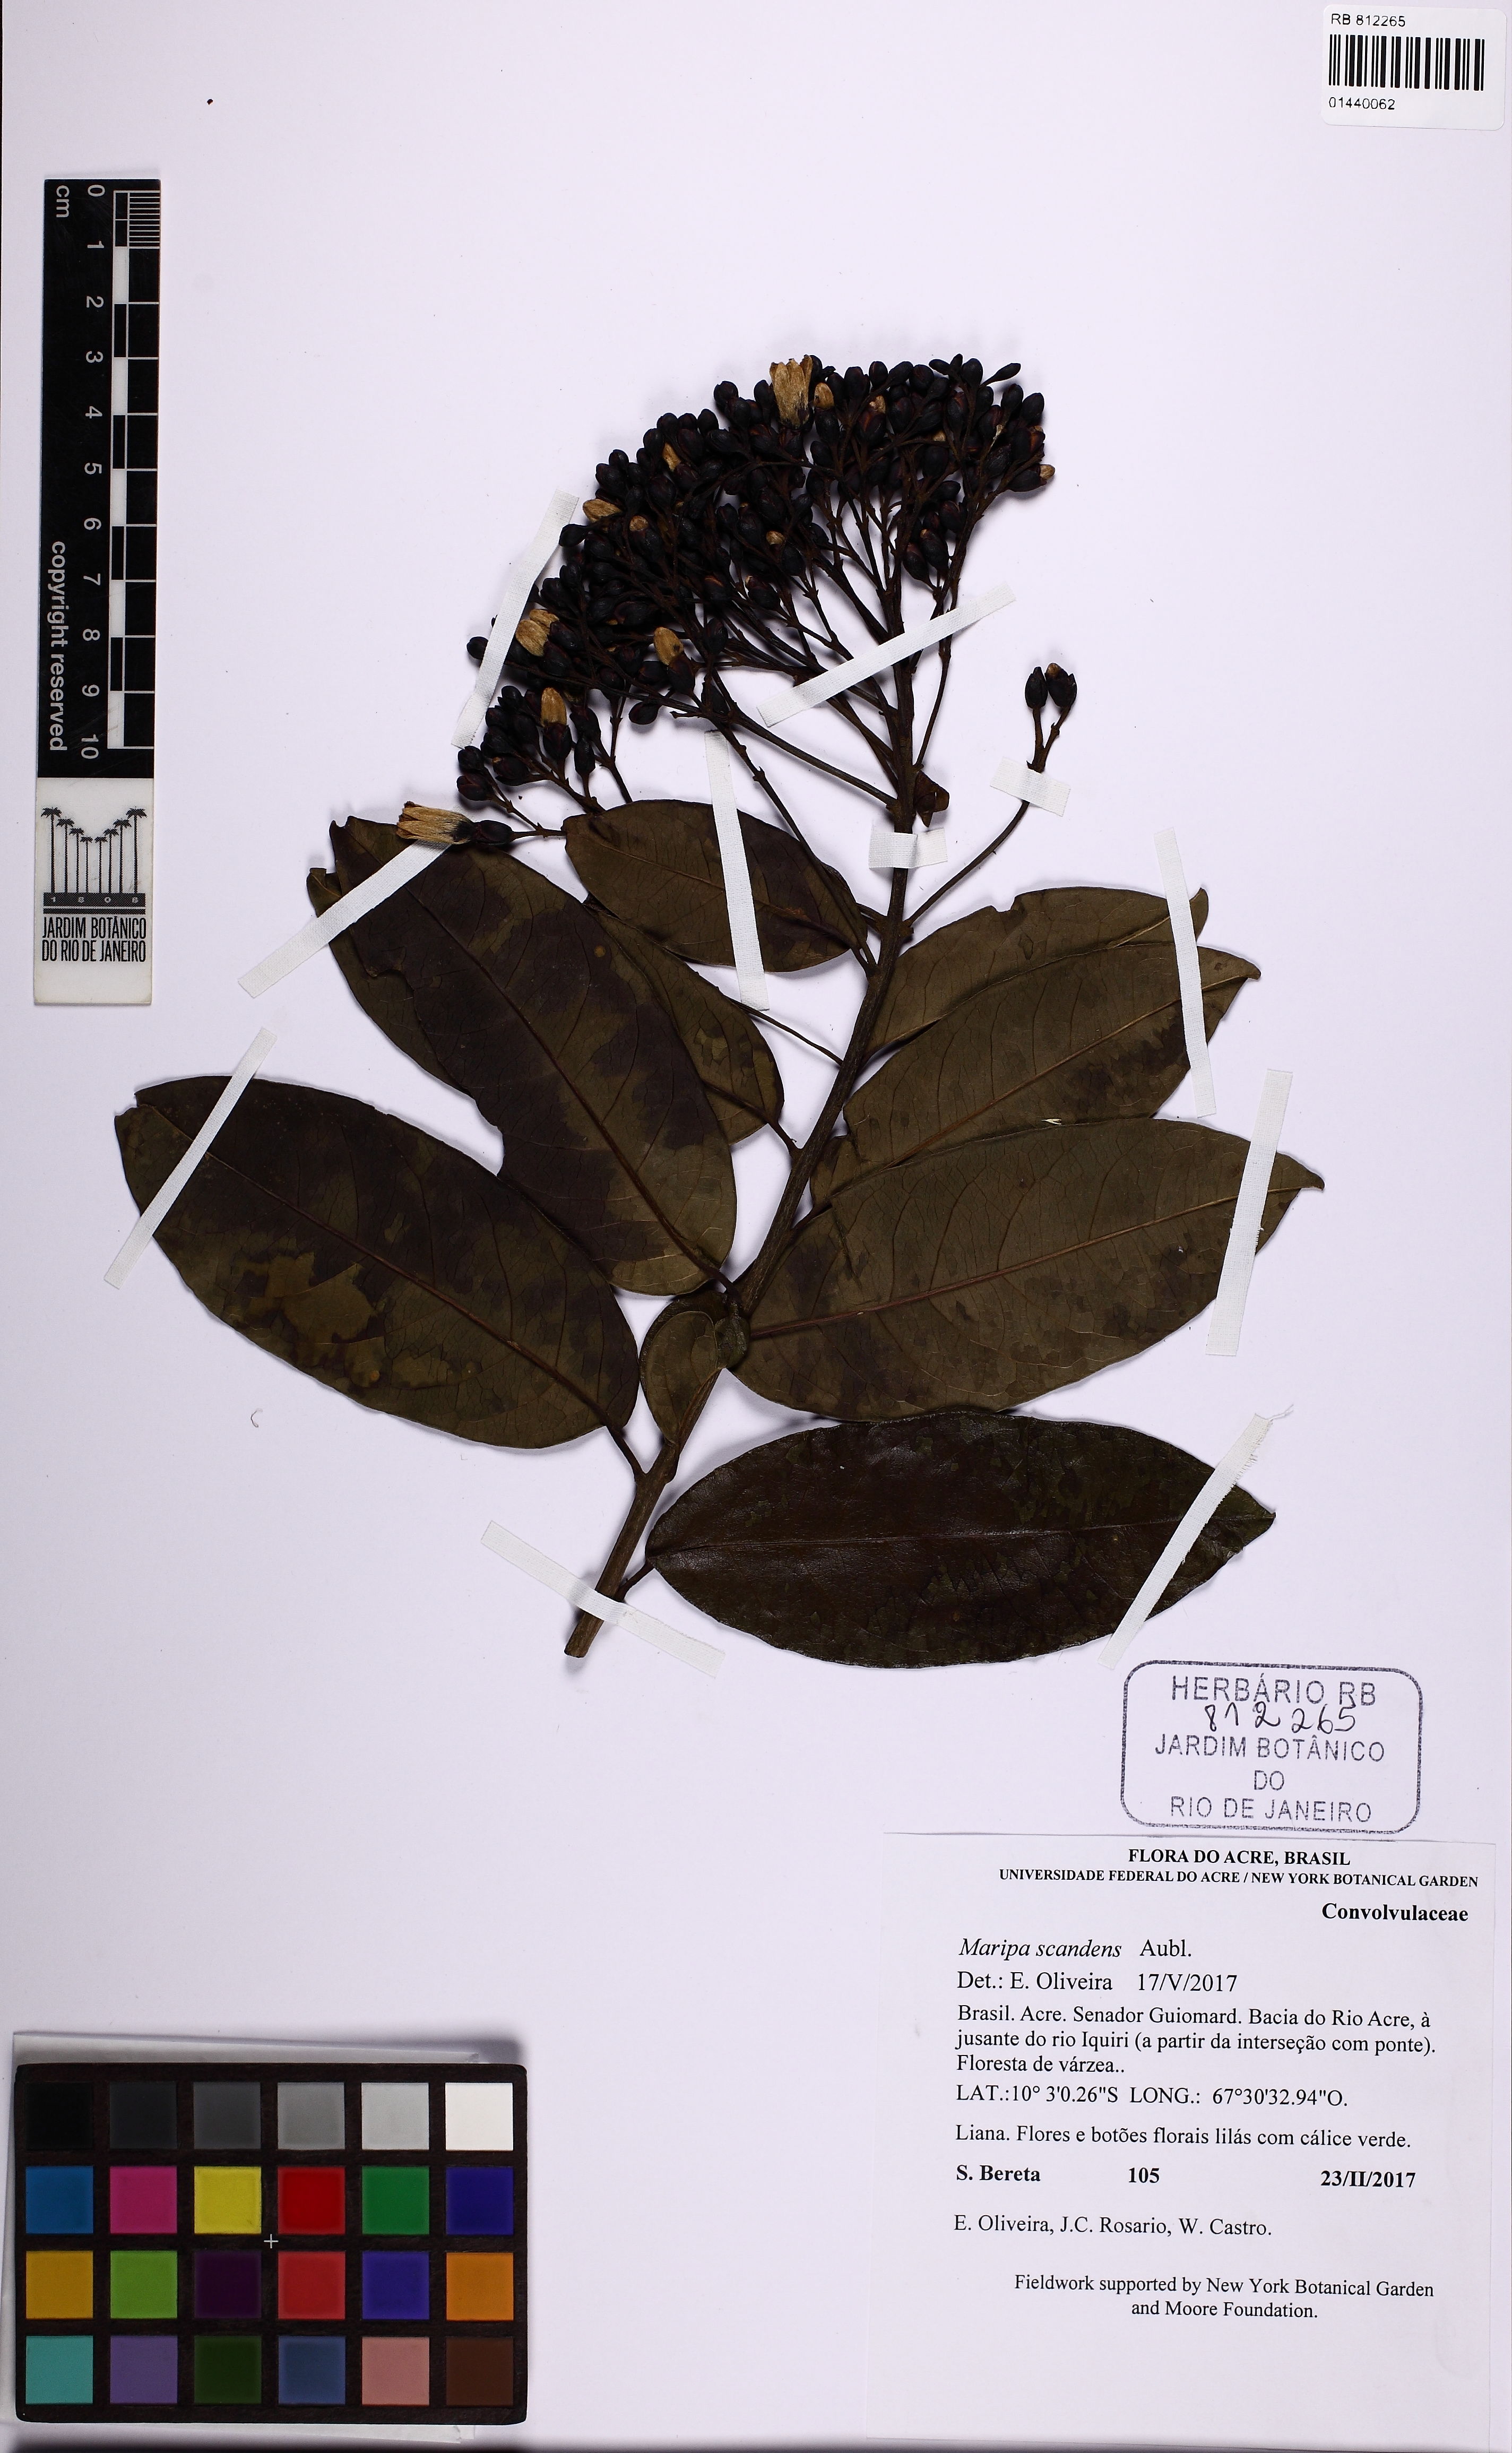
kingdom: Plantae
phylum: Tracheophyta
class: Magnoliopsida
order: Solanales
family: Convolvulaceae
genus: Maripa
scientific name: Maripa peruviana
